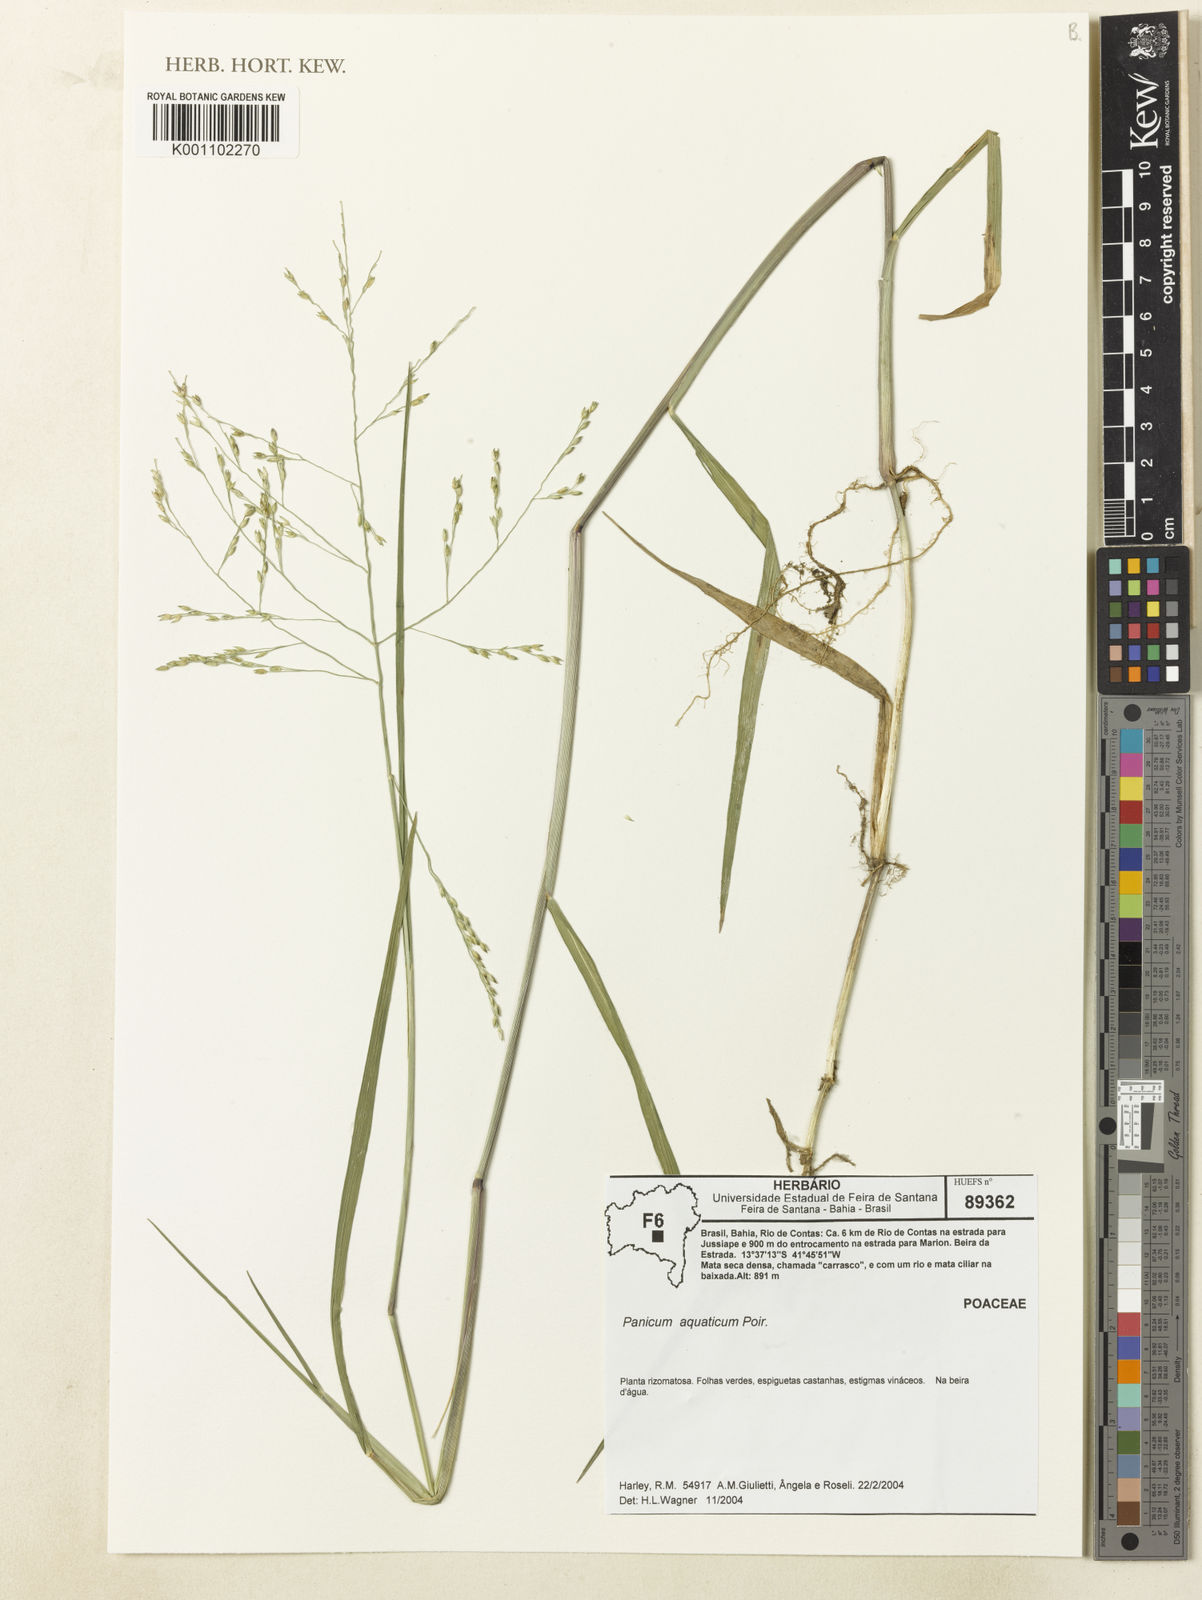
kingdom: Plantae
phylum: Tracheophyta
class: Liliopsida
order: Poales
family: Poaceae
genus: Panicum
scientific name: Panicum aquaticum
